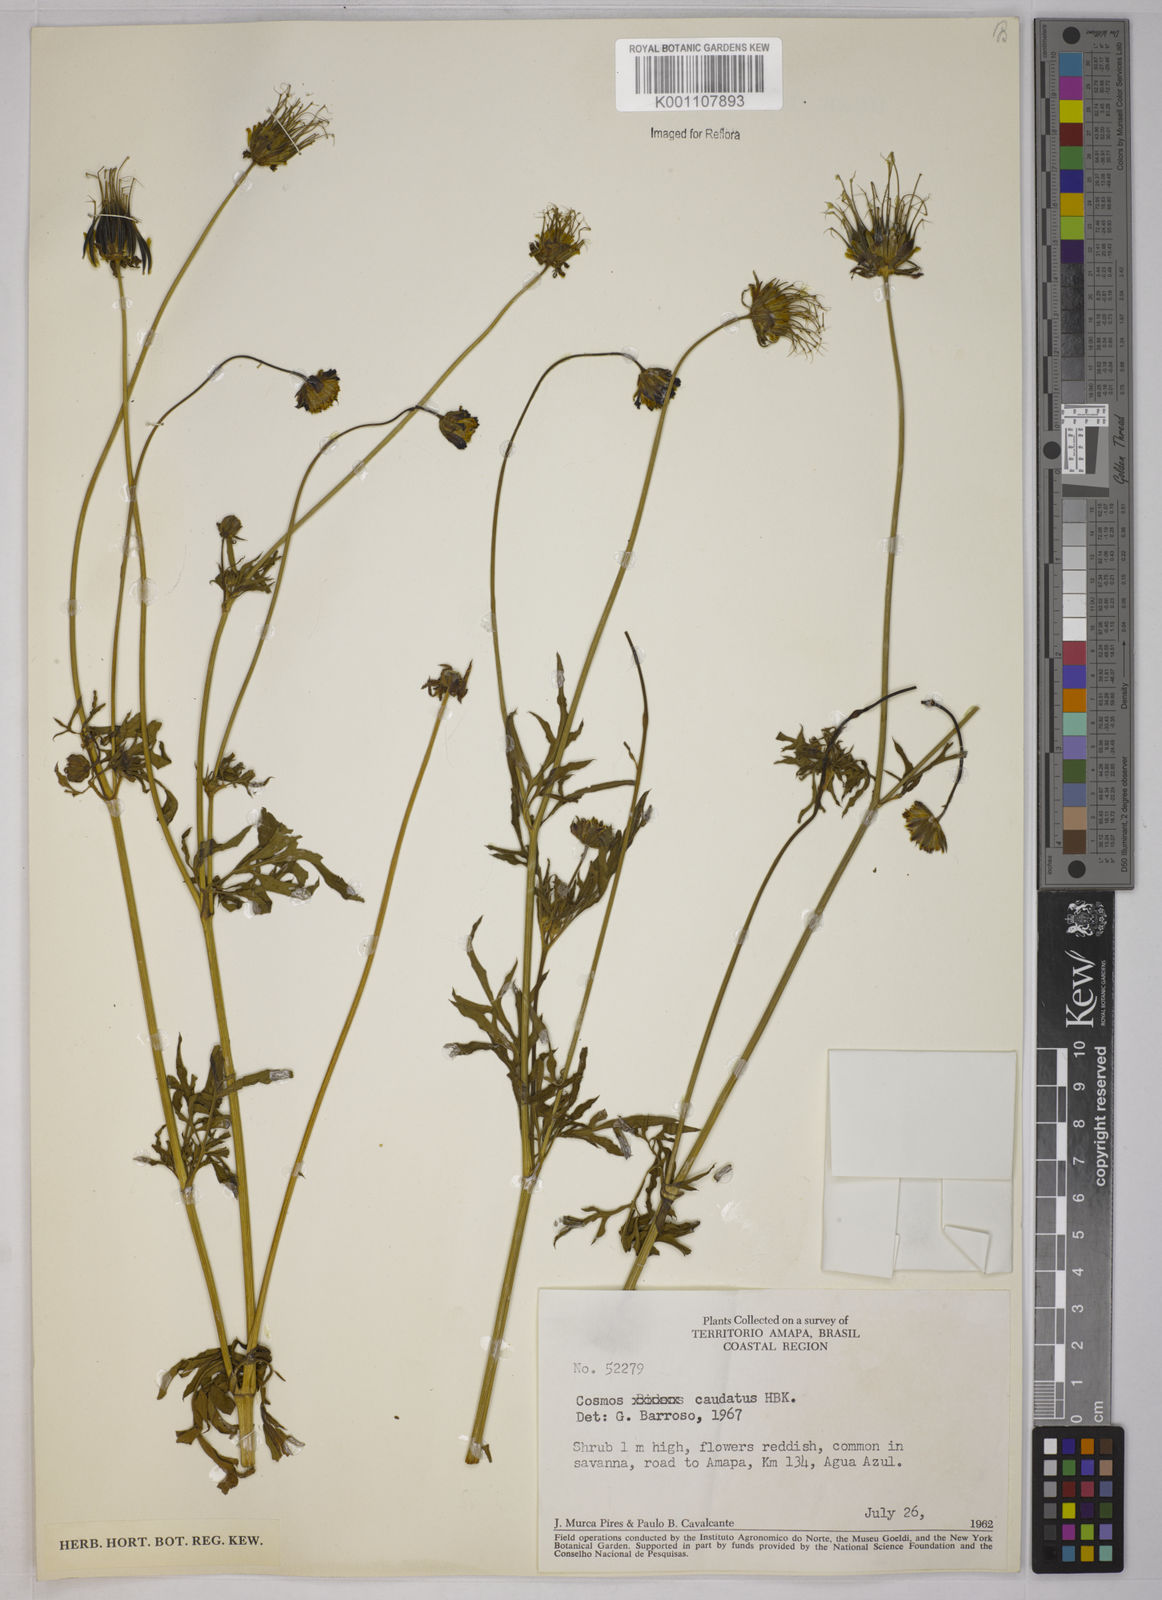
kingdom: Plantae
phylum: Tracheophyta
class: Magnoliopsida
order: Asterales
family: Asteraceae
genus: Cosmos
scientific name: Cosmos caudatus
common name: Wild cosmos
